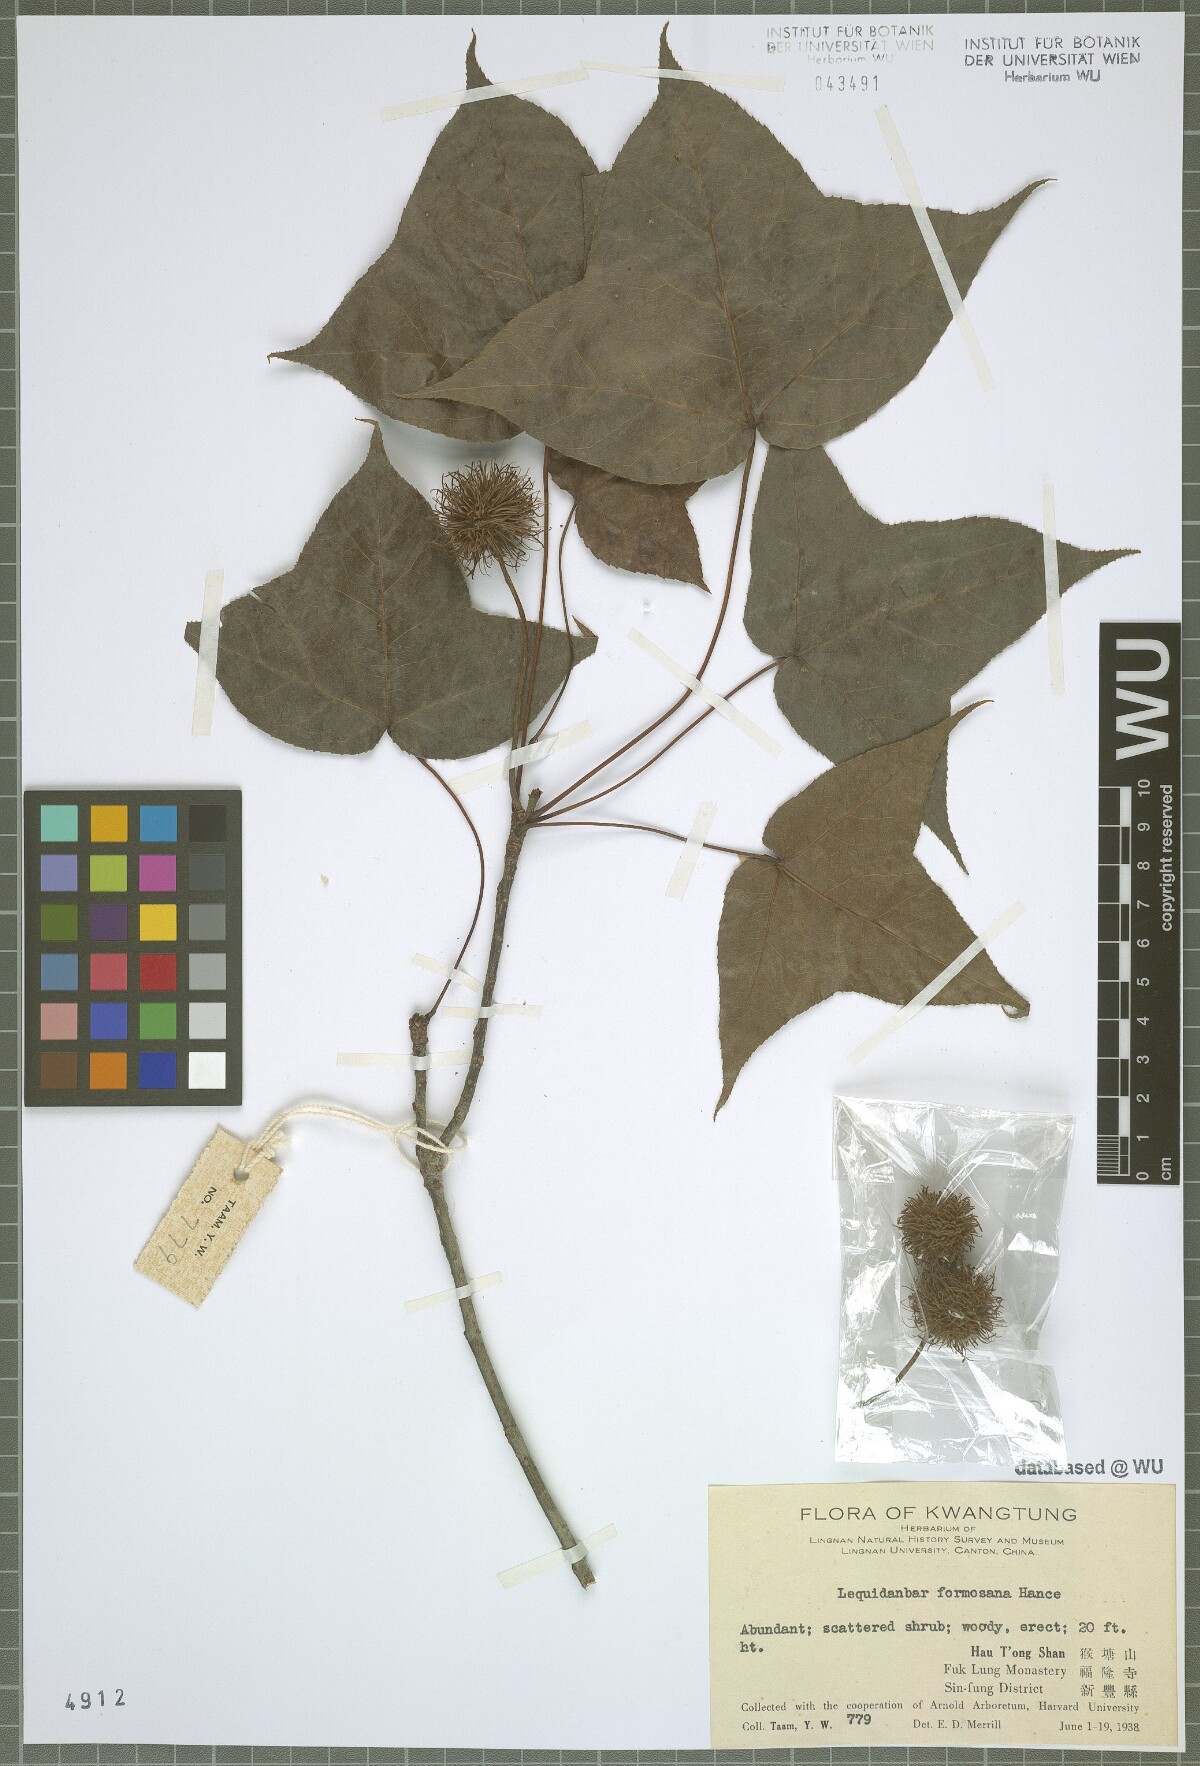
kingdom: Plantae
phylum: Tracheophyta
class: Magnoliopsida
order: Saxifragales
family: Altingiaceae
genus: Liquidambar
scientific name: Liquidambar formosana
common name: Chinese sweet gum
